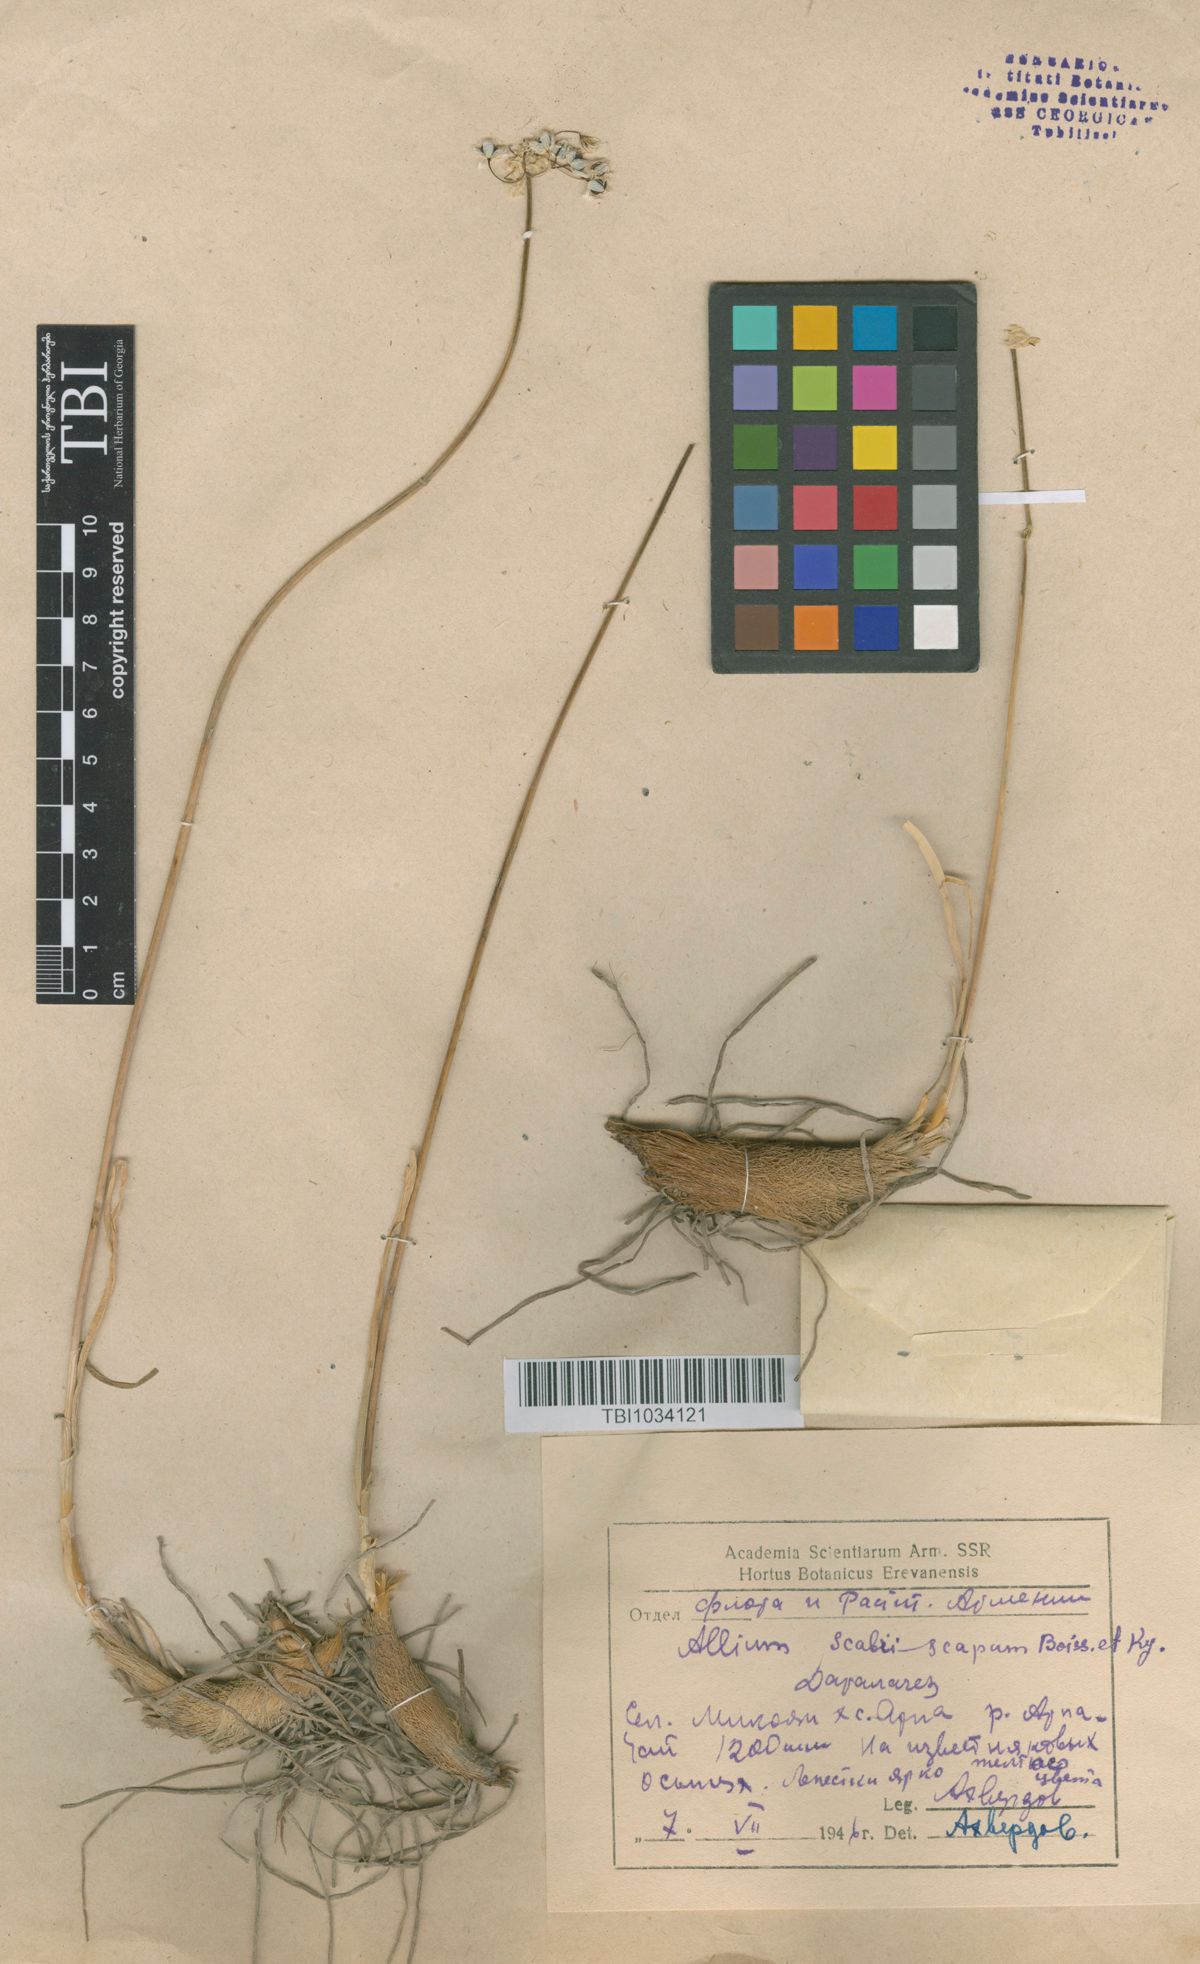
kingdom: Plantae
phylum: Tracheophyta
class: Liliopsida
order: Asparagales
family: Amaryllidaceae
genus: Allium
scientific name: Allium scabriscapum
